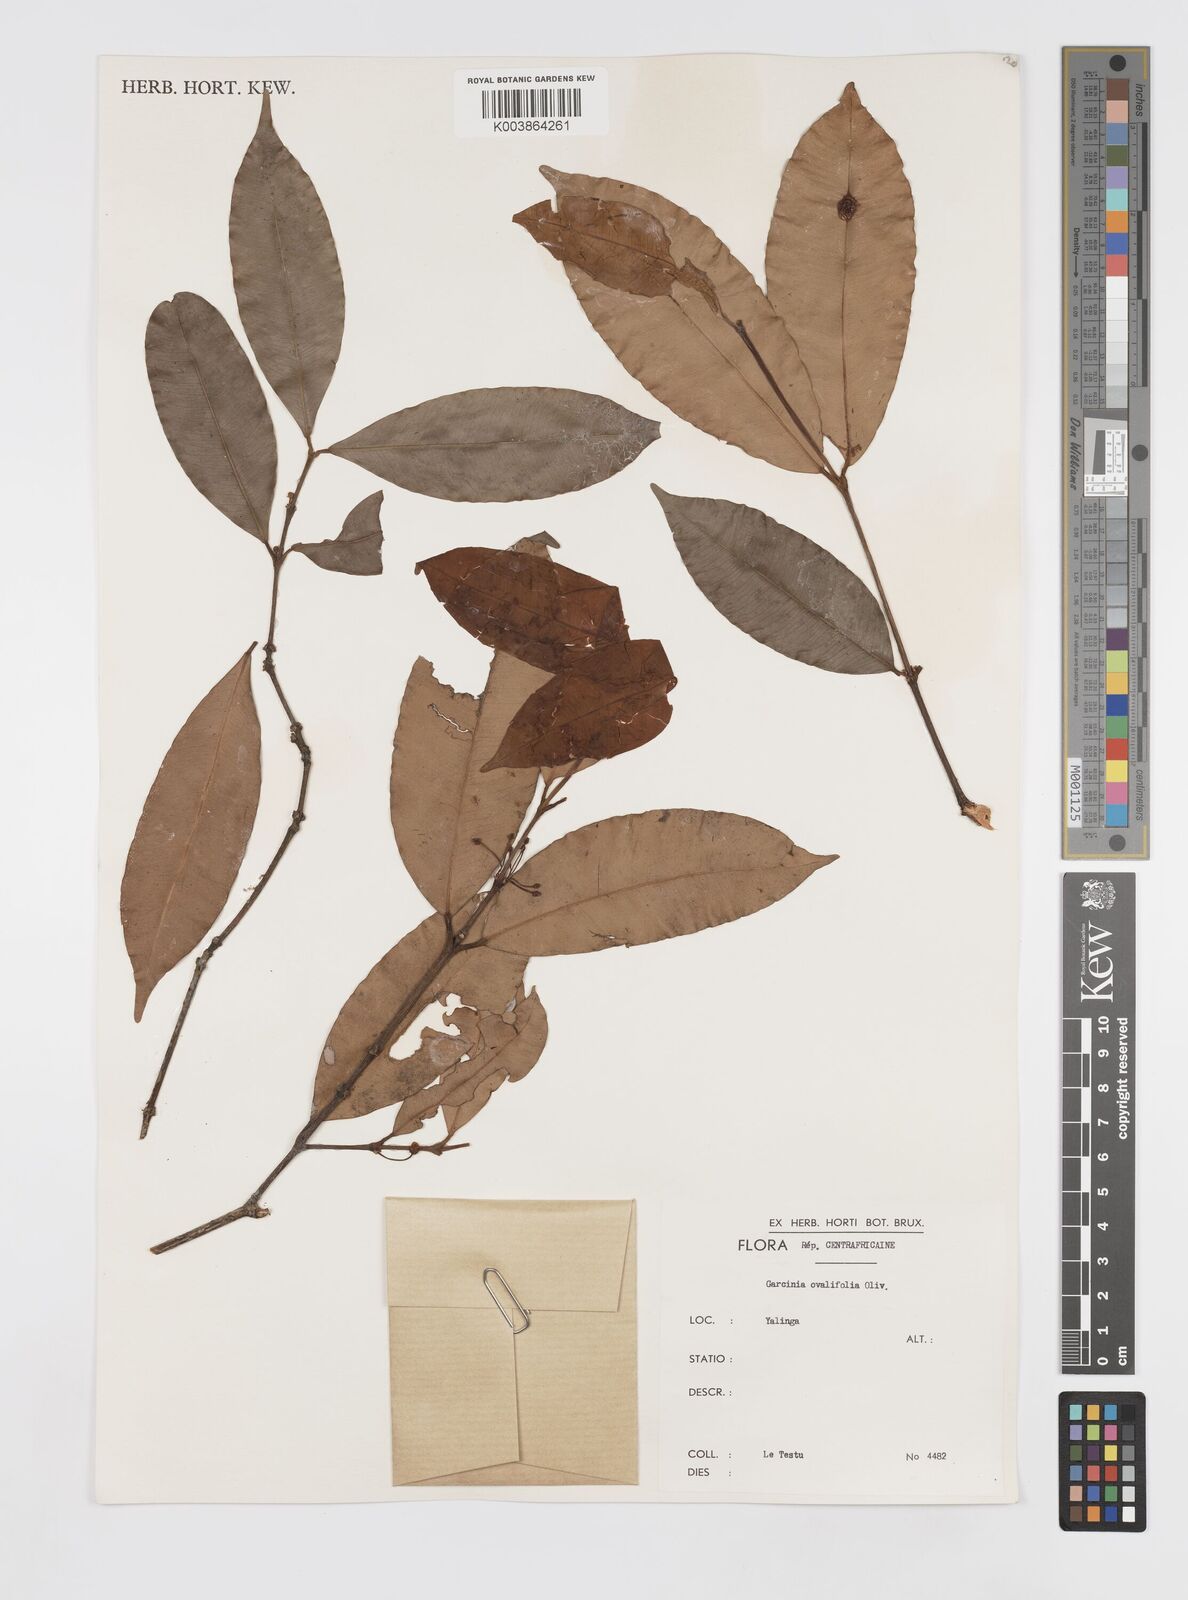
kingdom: Plantae
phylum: Tracheophyta
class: Magnoliopsida
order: Malpighiales
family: Clusiaceae
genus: Garcinia
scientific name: Garcinia ovalifolia
